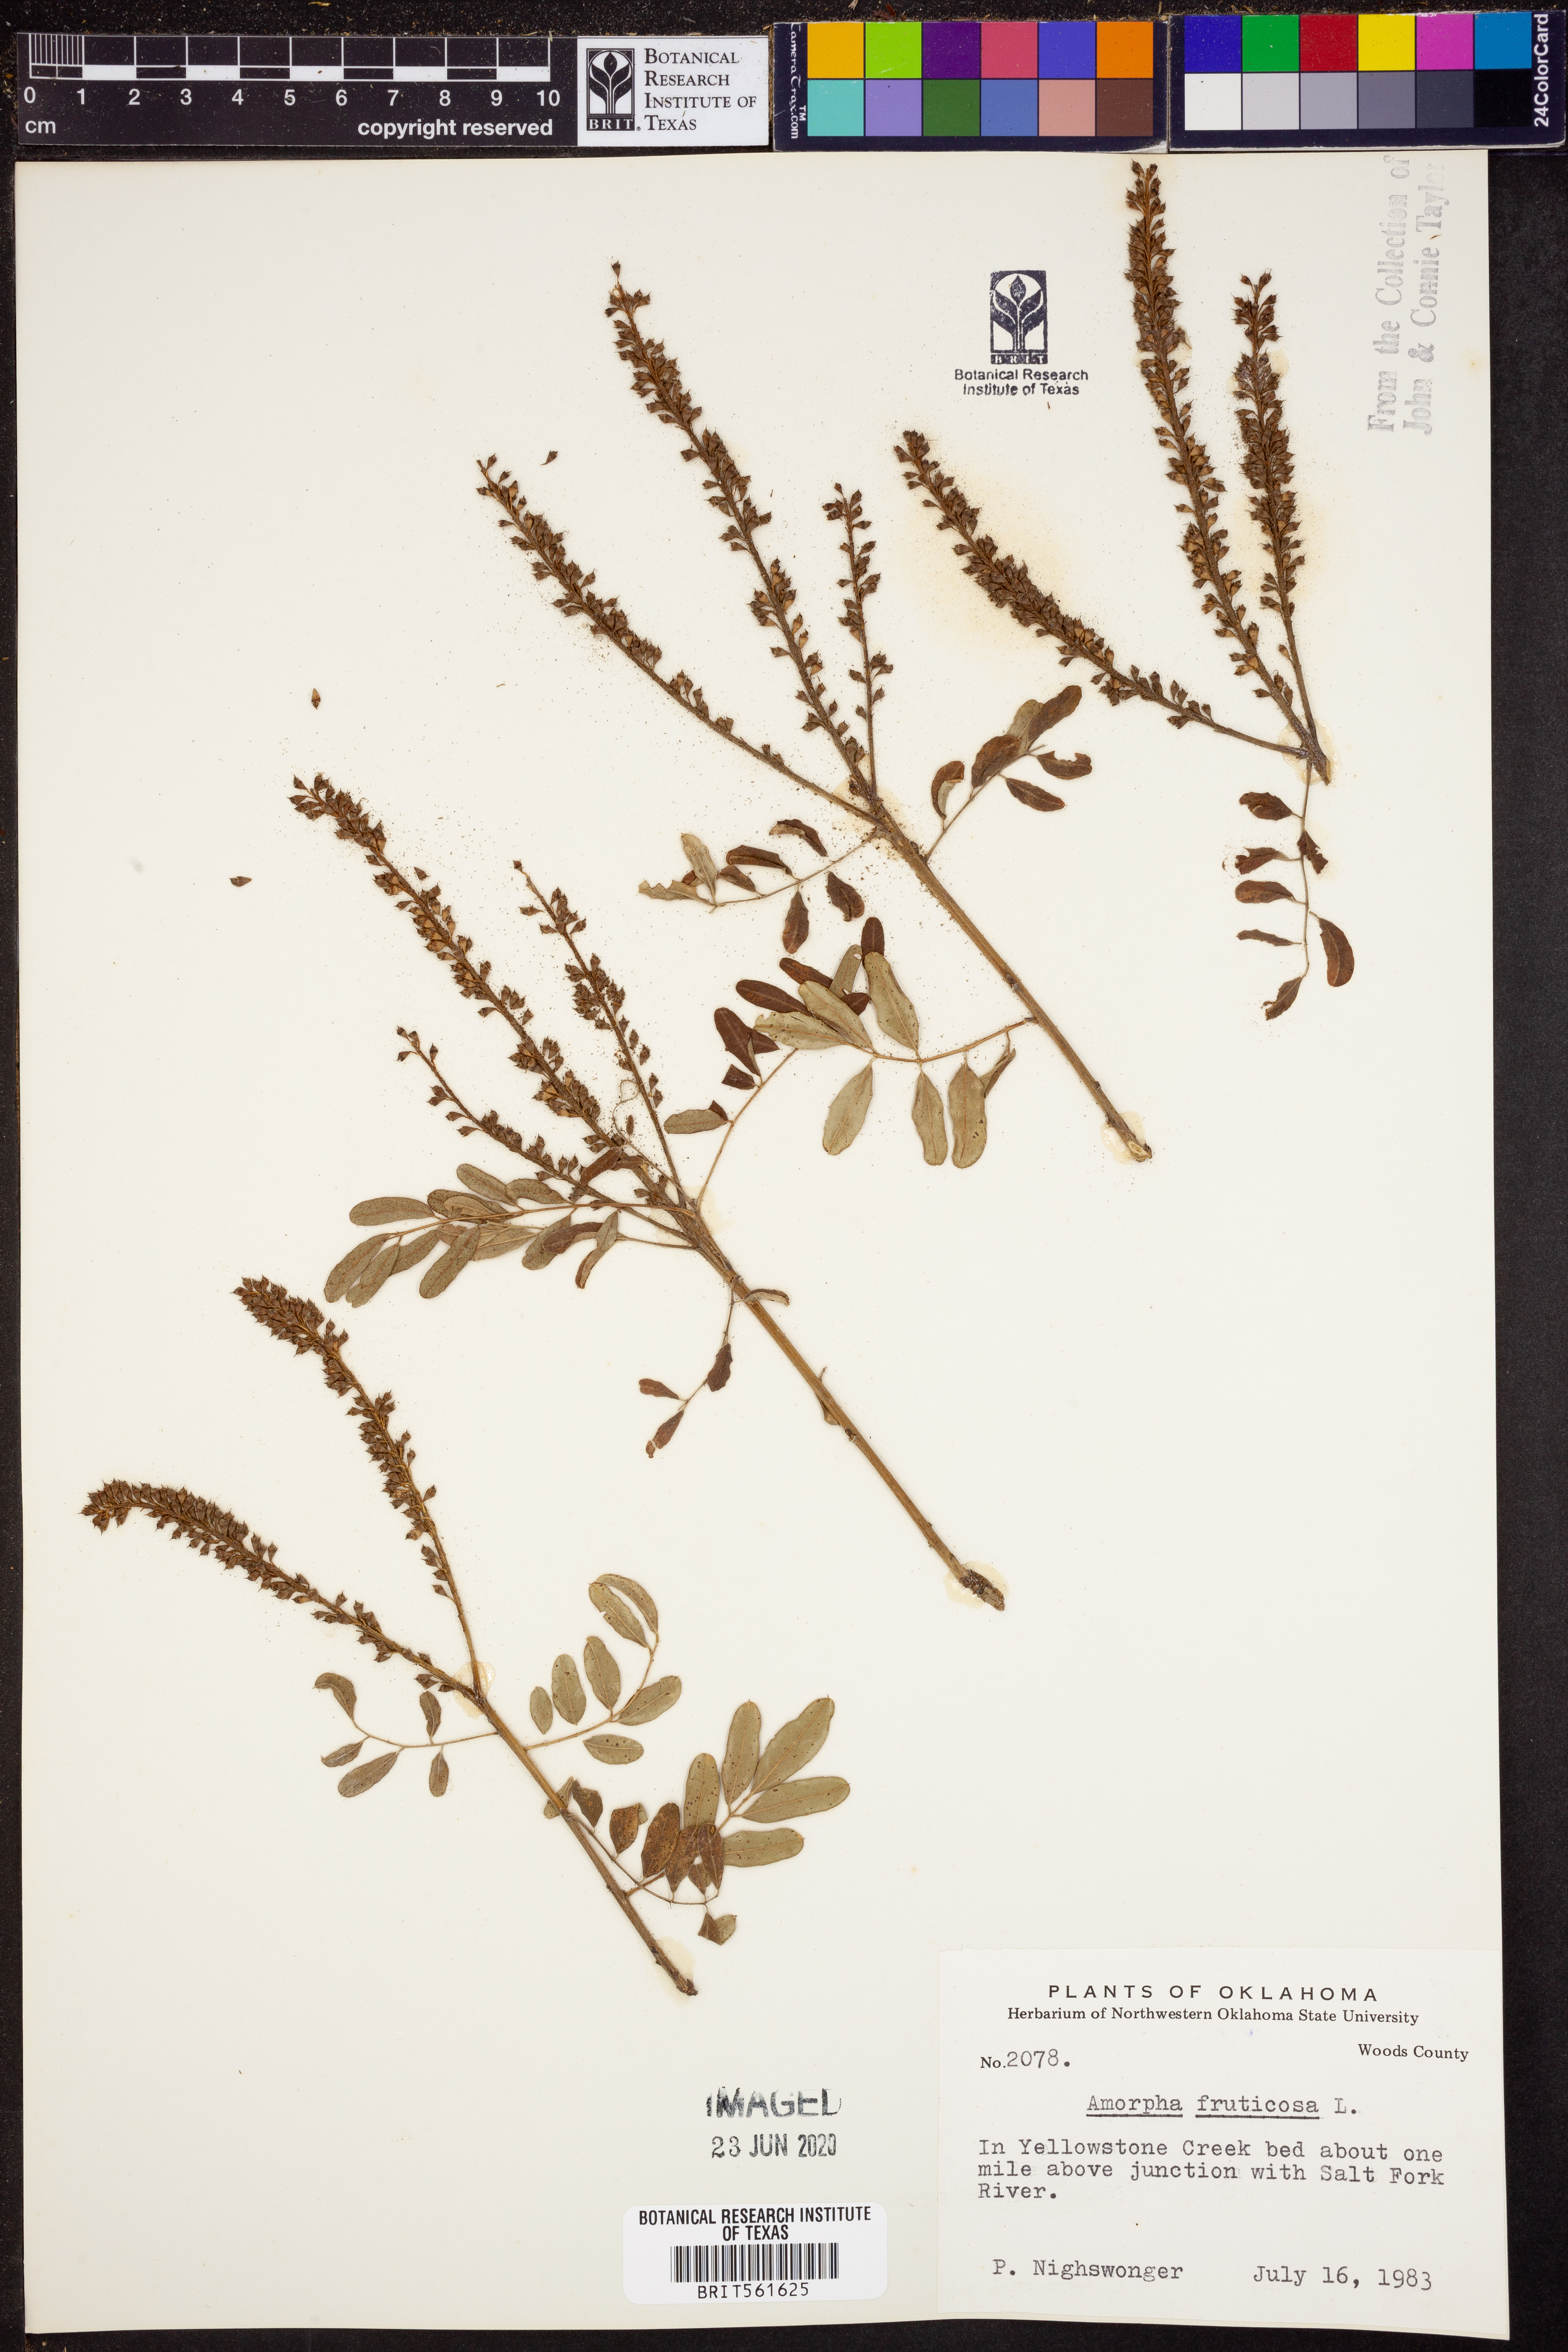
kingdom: Plantae
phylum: Tracheophyta
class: Magnoliopsida
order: Fabales
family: Fabaceae
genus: Amorpha
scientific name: Amorpha fruticosa
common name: False indigo
